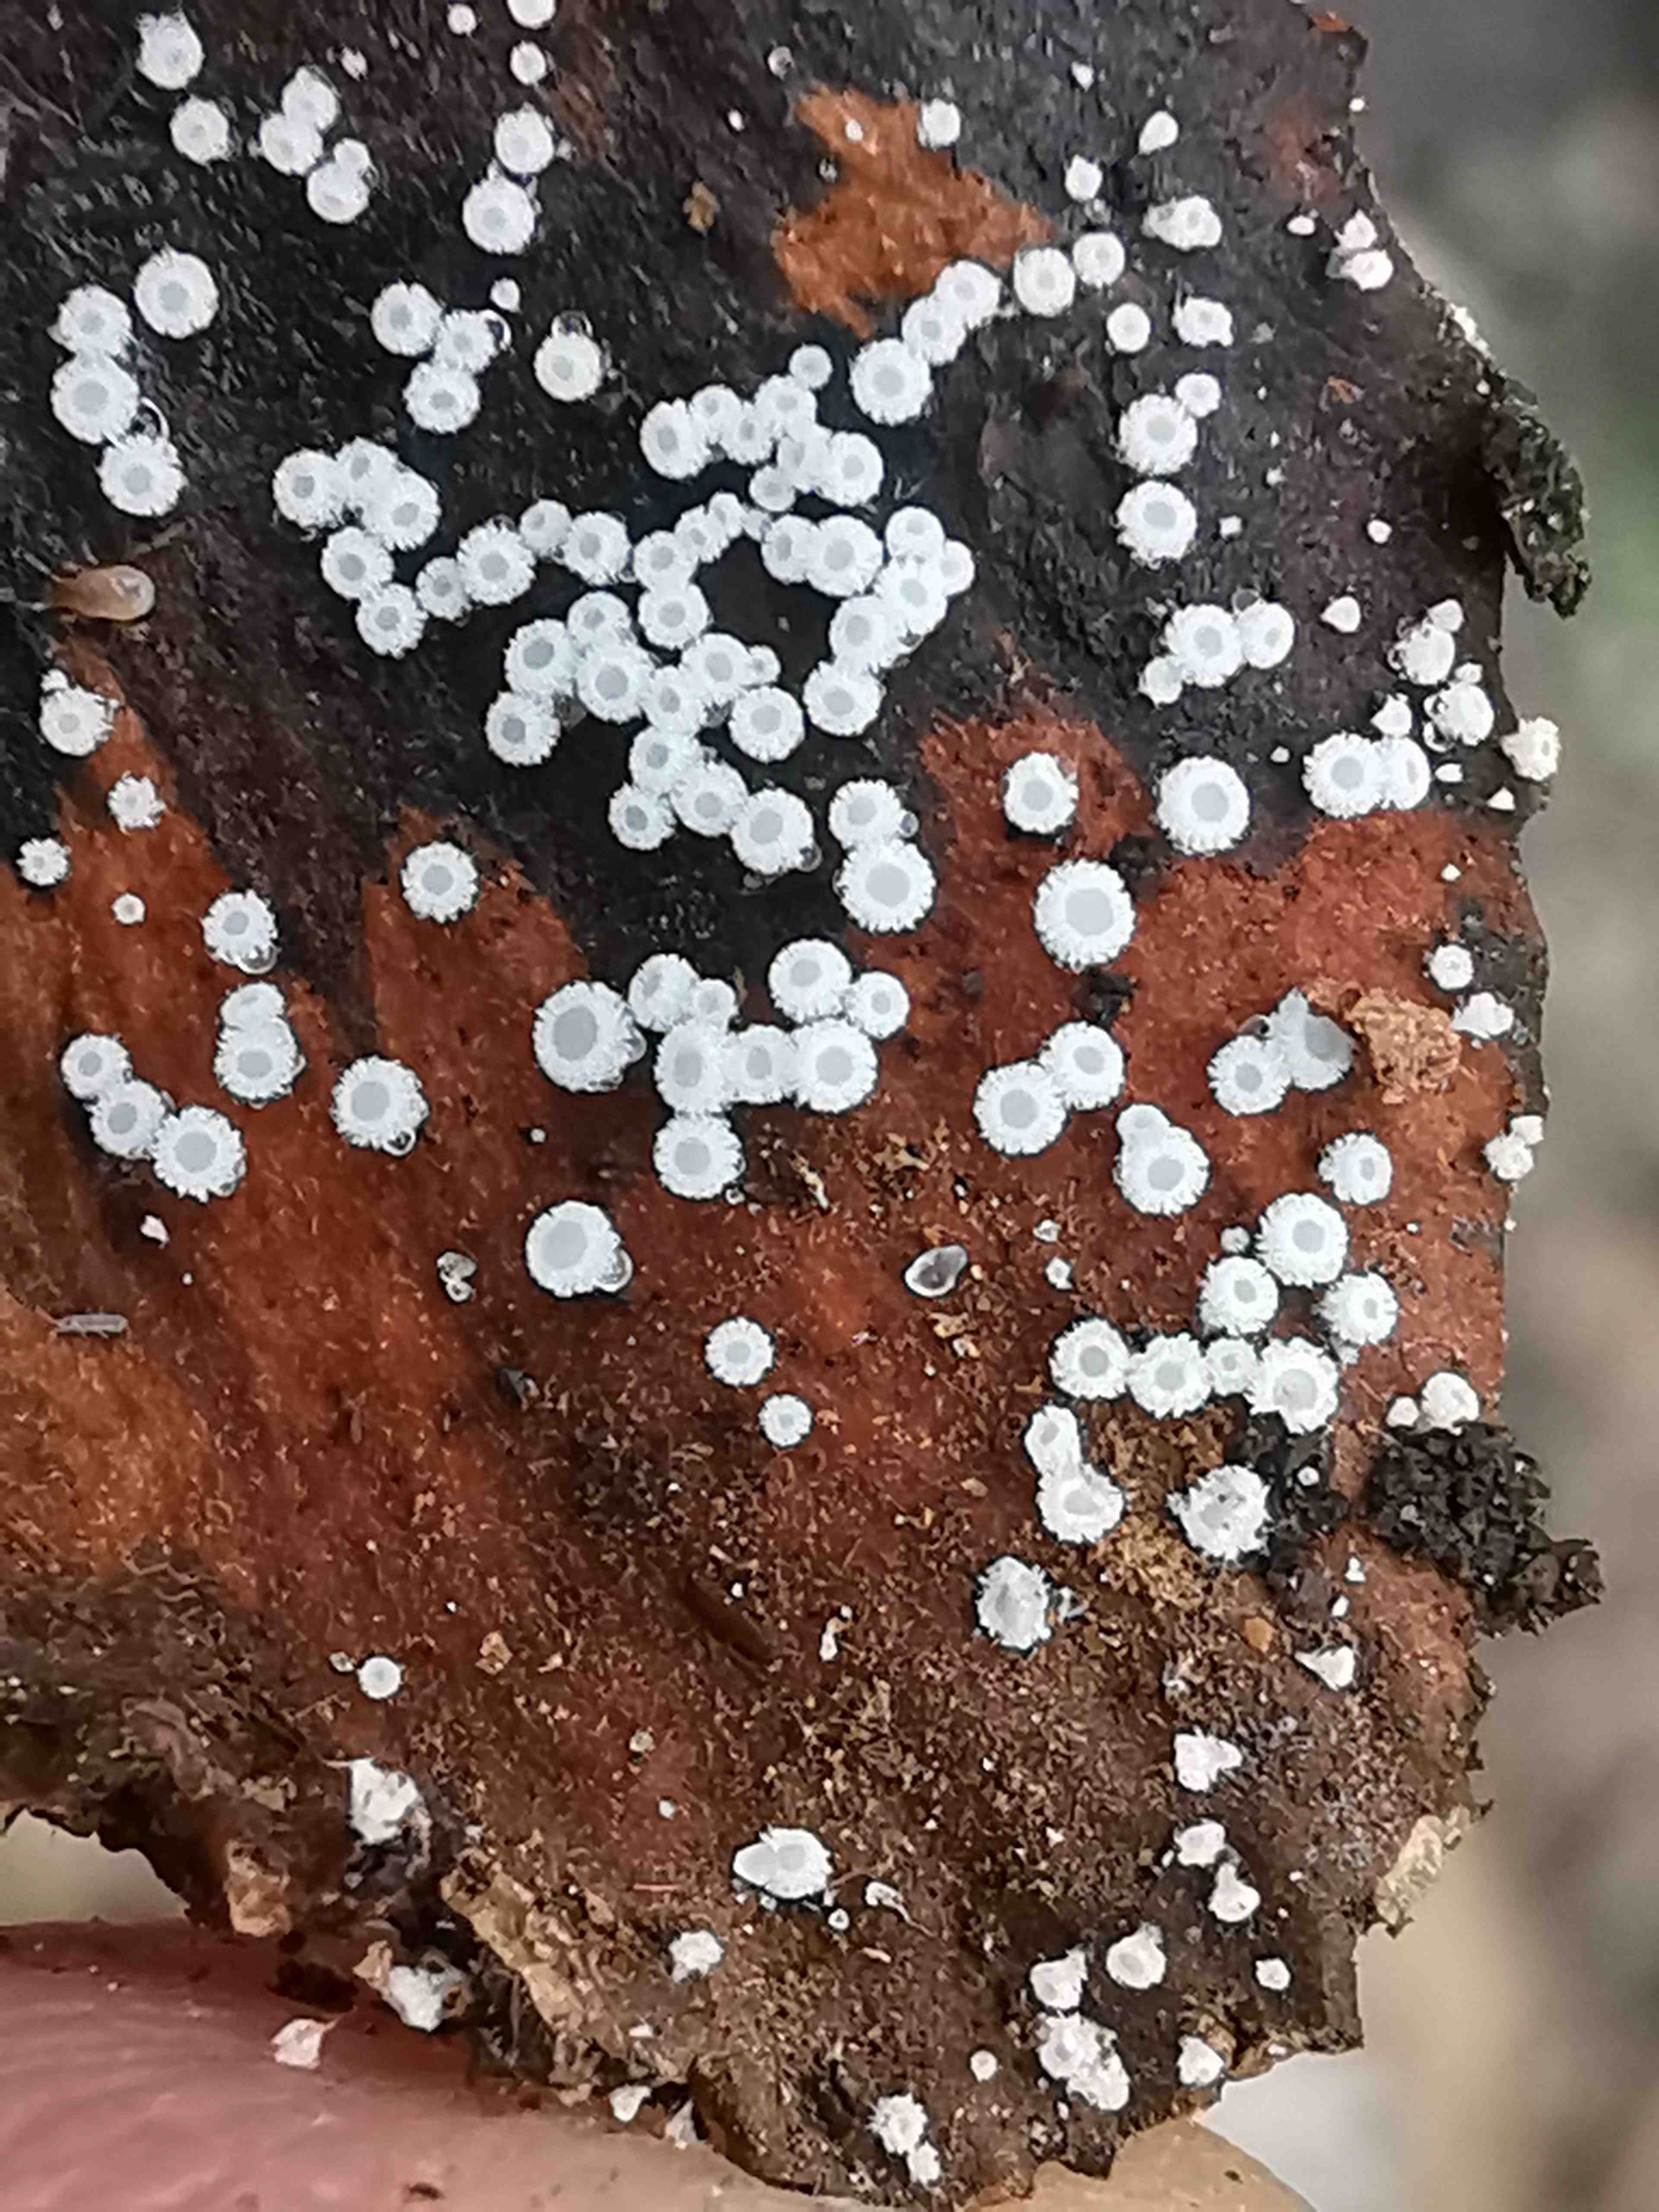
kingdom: Fungi
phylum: Ascomycota
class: Leotiomycetes
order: Helotiales
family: Lachnaceae
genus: Lachnum
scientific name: Lachnum virgineum
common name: jomfru-frynseskive
